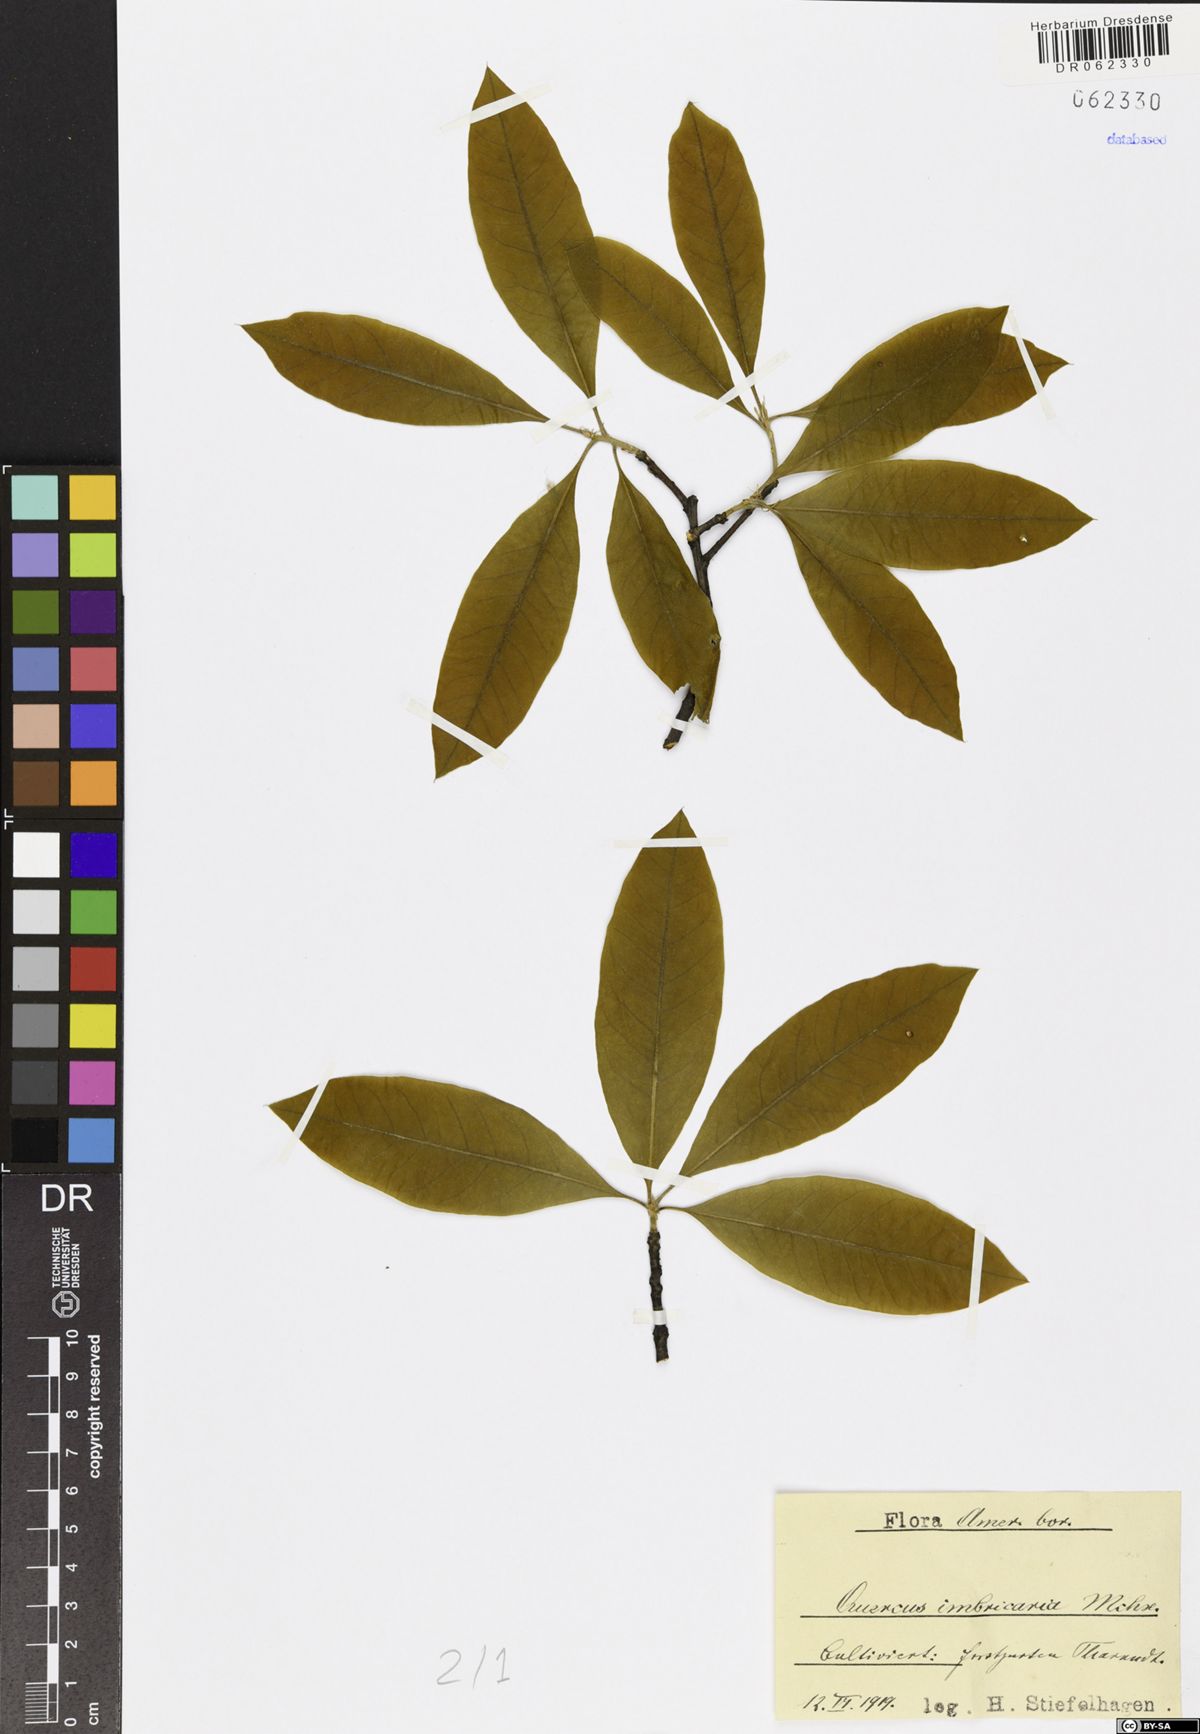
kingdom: Plantae
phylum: Tracheophyta
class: Magnoliopsida
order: Fagales
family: Fagaceae
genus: Quercus
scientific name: Quercus imbricaria
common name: Shingle oak
